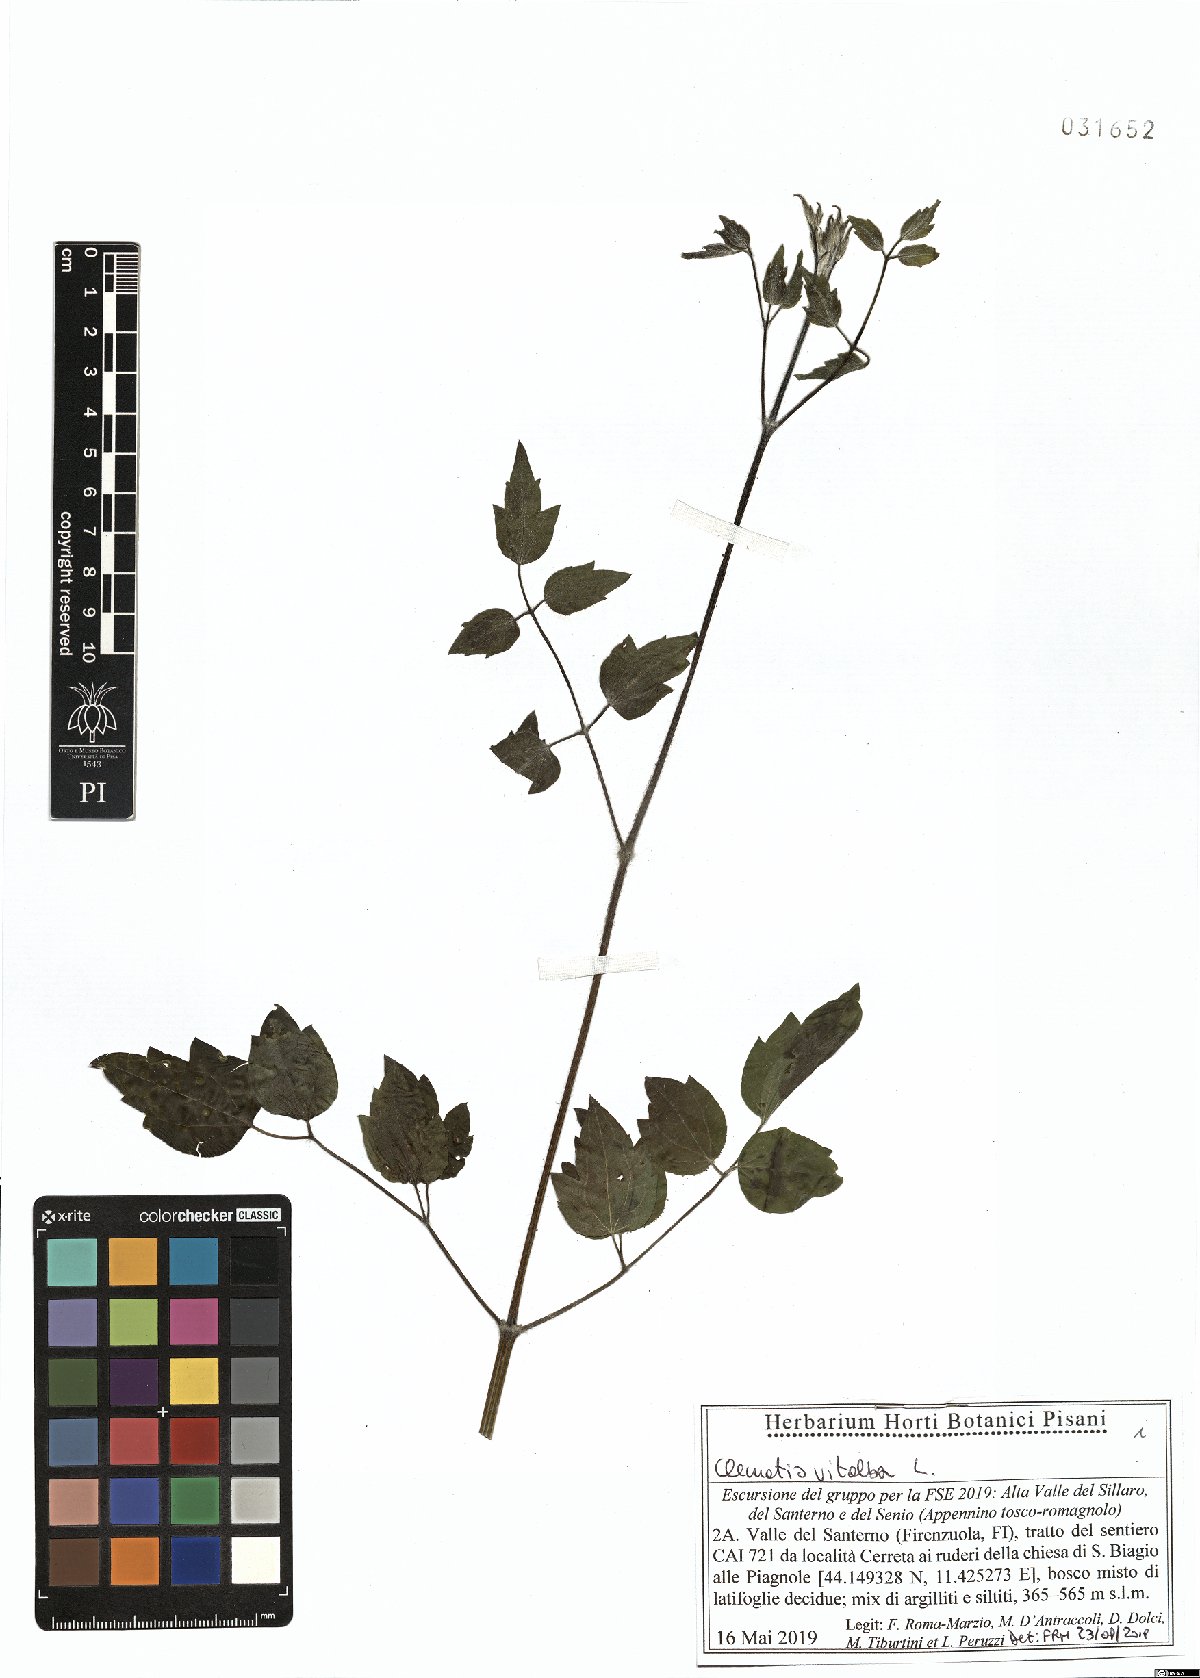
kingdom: Plantae
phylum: Tracheophyta
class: Magnoliopsida
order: Ranunculales
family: Ranunculaceae
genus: Clematis
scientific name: Clematis vitalba
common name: Evergreen clematis
